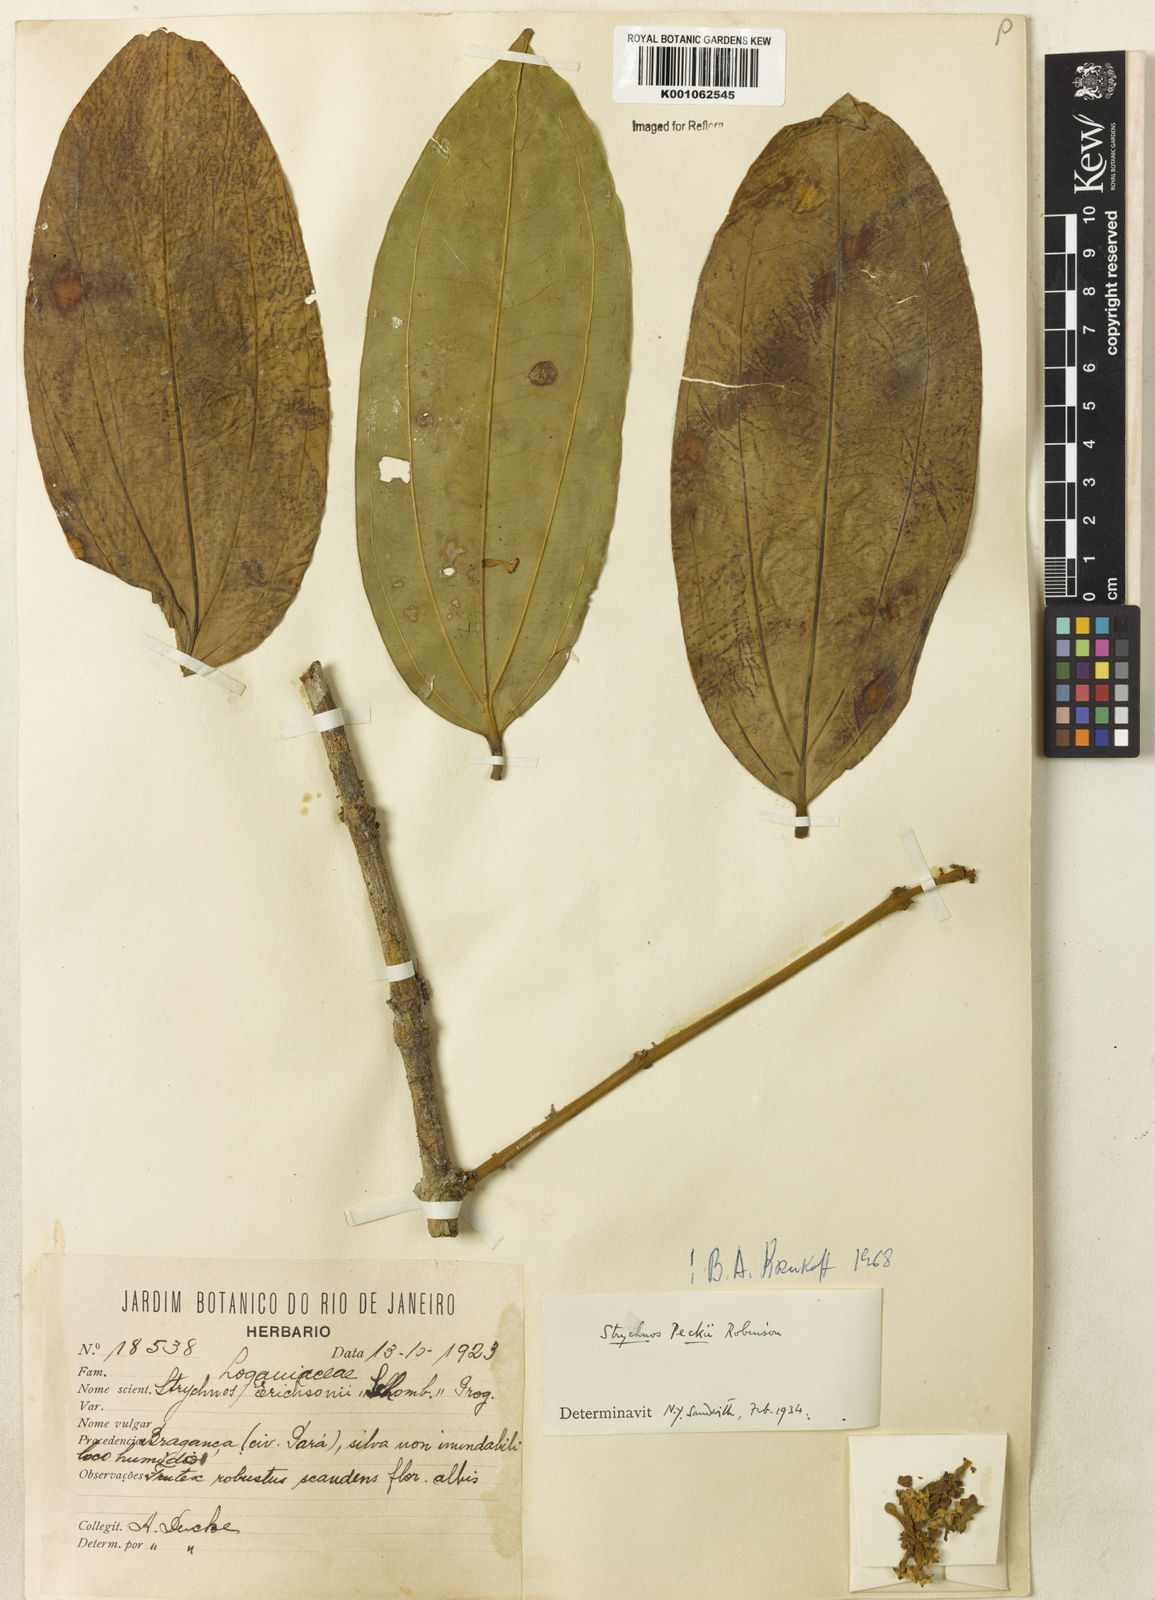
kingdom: Plantae
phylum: Tracheophyta
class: Magnoliopsida
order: Gentianales
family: Loganiaceae
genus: Strychnos
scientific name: Strychnos peckii
